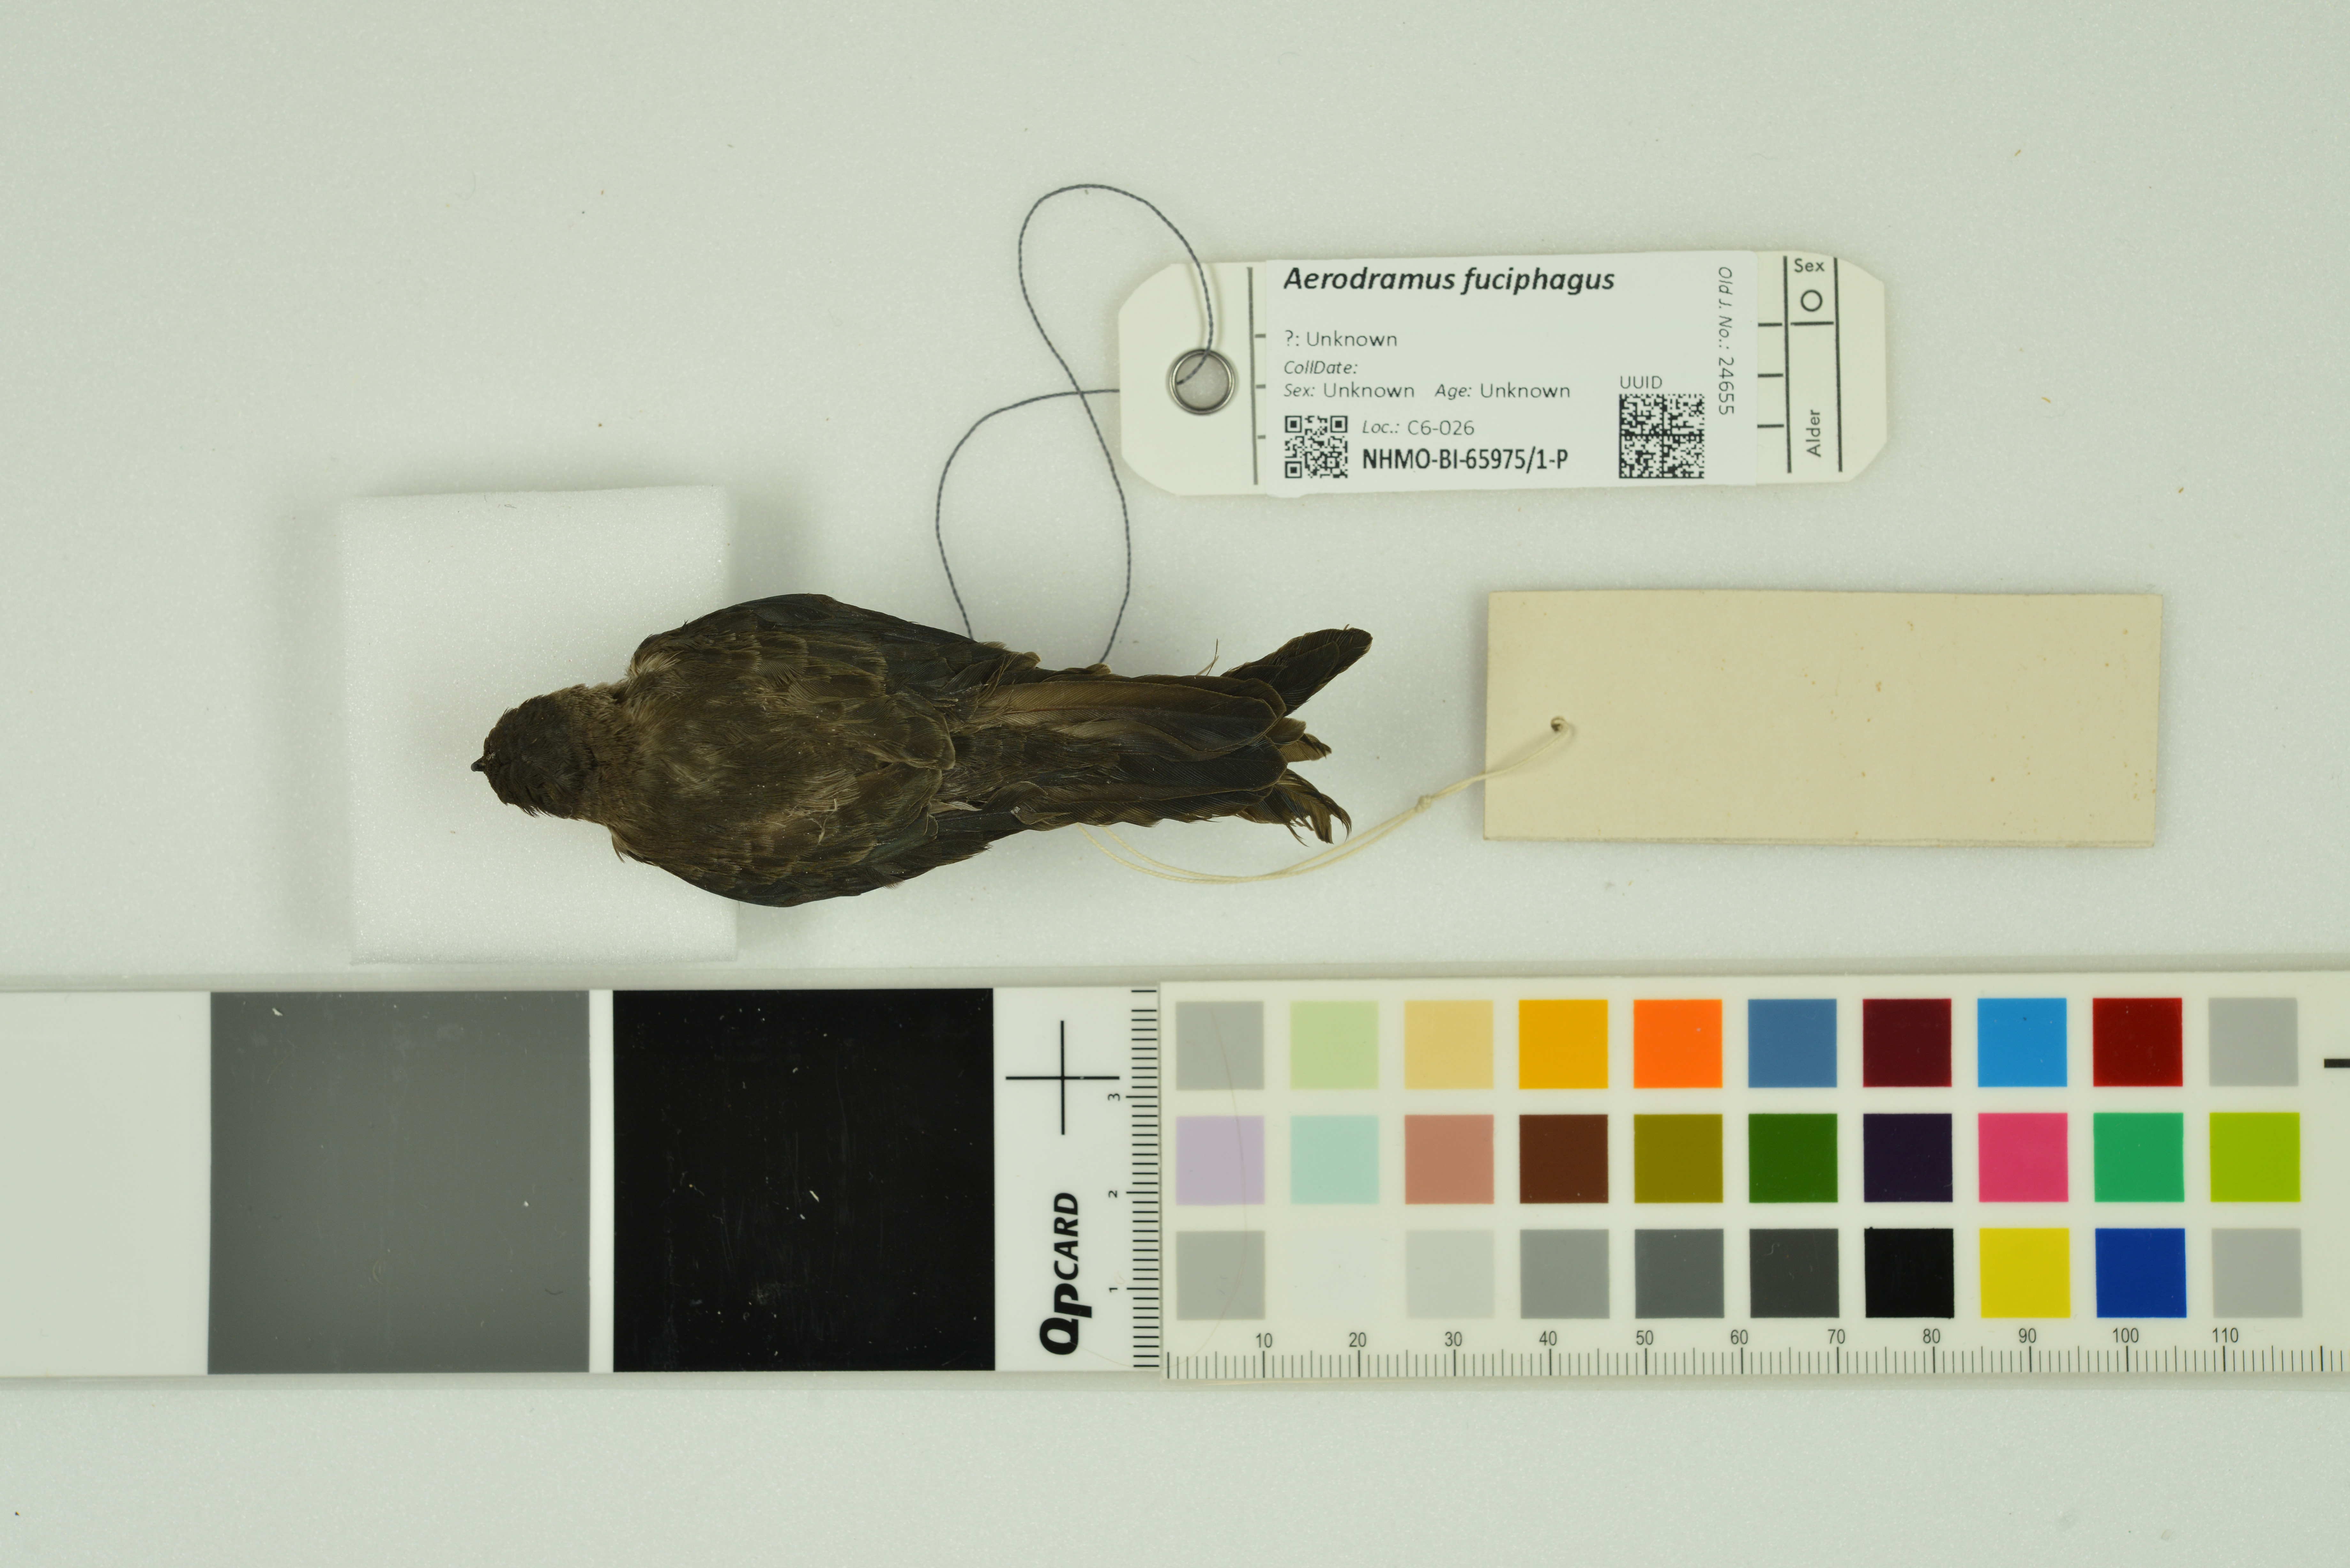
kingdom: Animalia
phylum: Chordata
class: Aves
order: Apodiformes
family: Apodidae
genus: Aerodramus
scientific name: Aerodramus fuciphagus
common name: Edible-nest swiftlet
